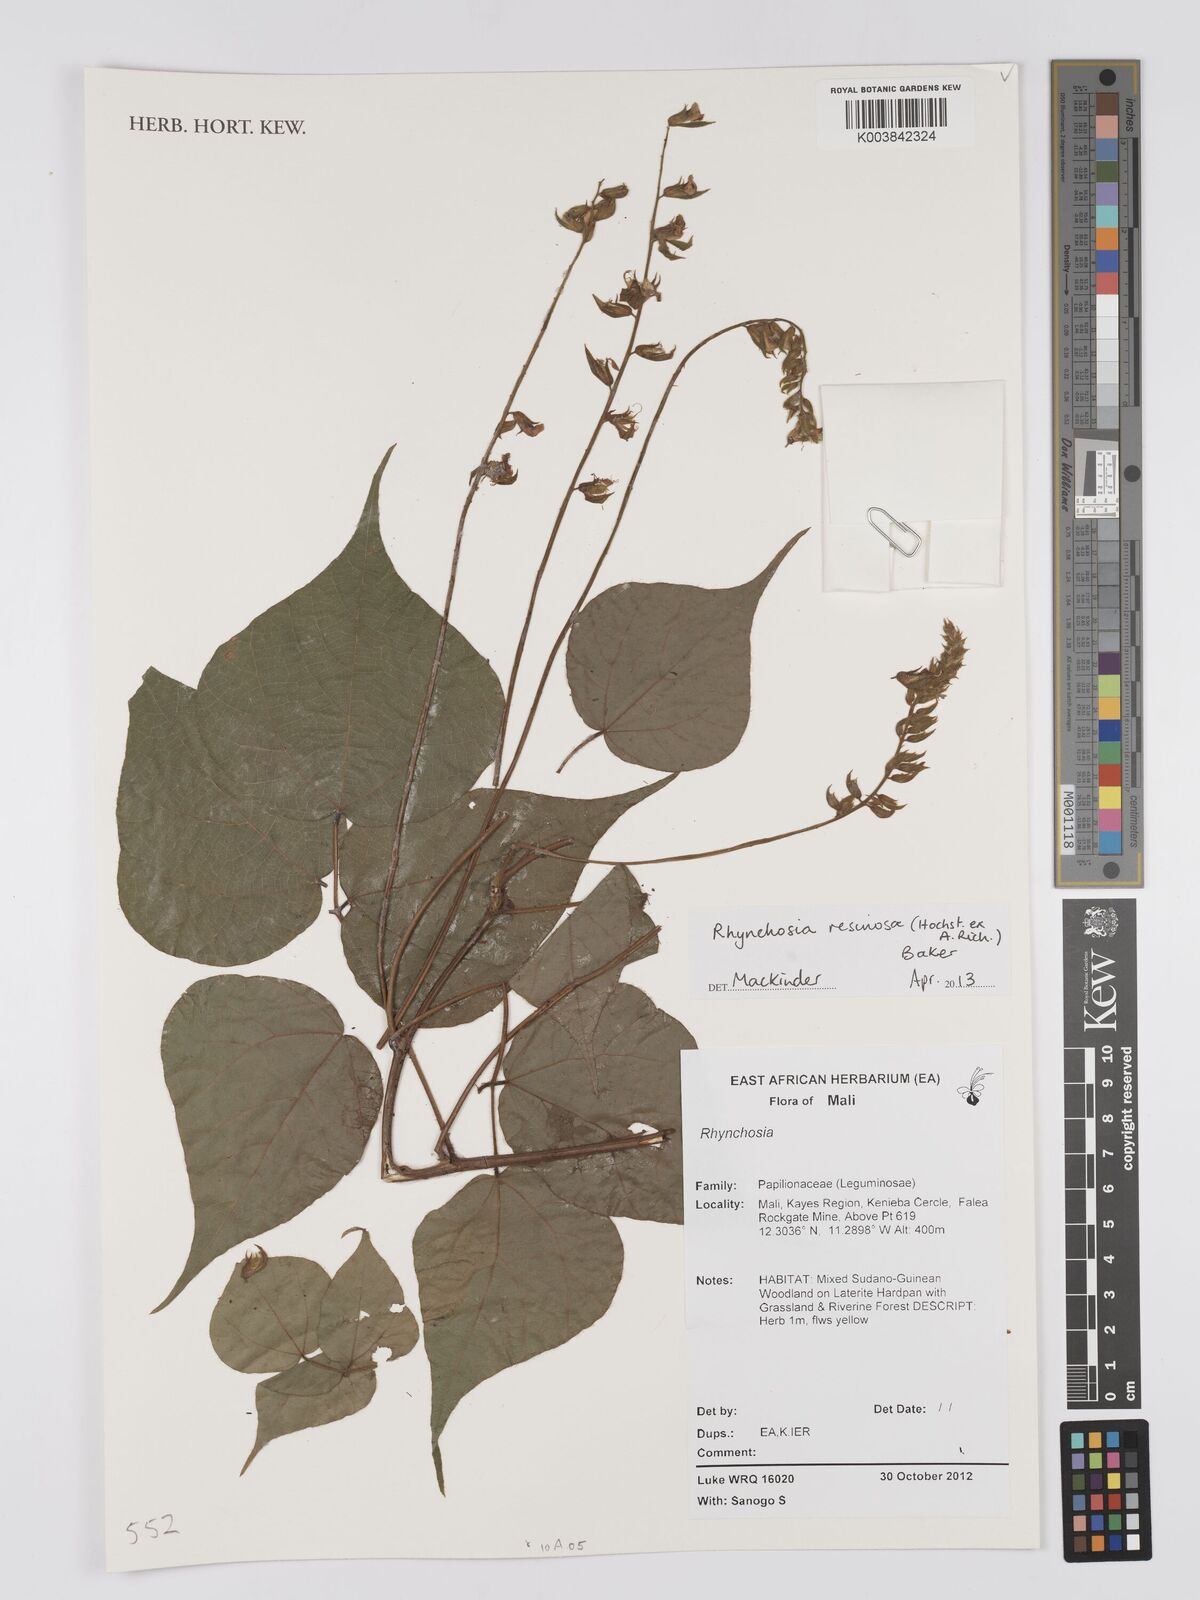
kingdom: Plantae
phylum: Tracheophyta
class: Magnoliopsida
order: Fabales
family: Fabaceae
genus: Rhynchosia
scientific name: Rhynchosia resinosa
